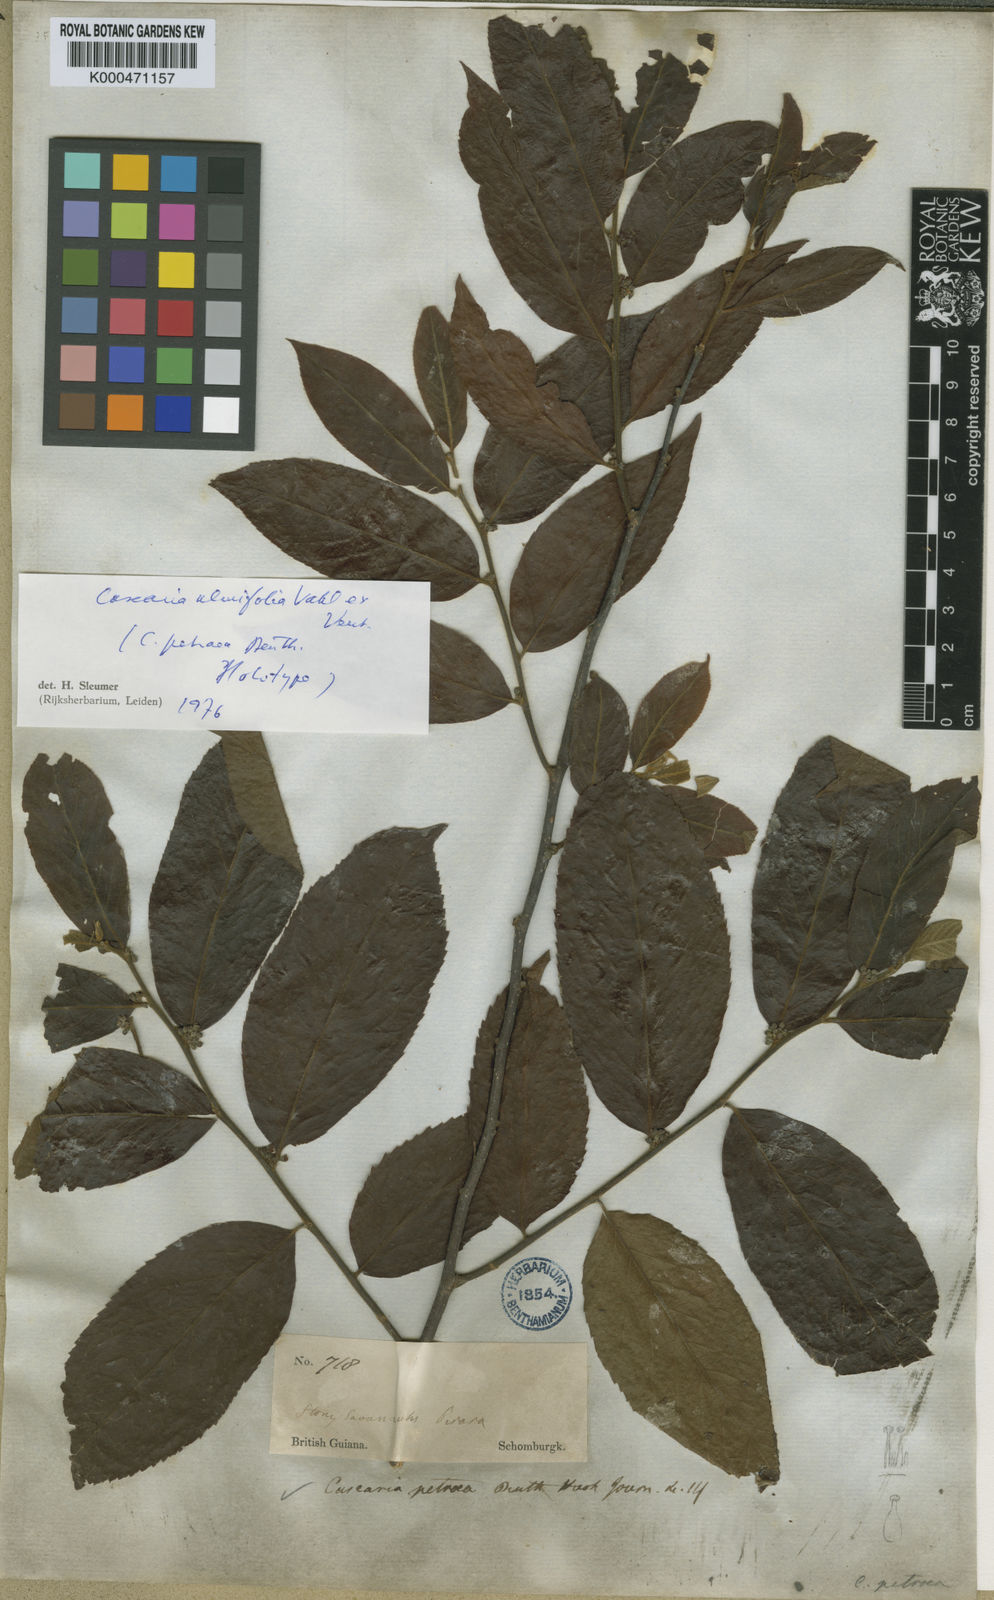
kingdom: Plantae
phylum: Tracheophyta
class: Magnoliopsida
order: Malpighiales
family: Salicaceae
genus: Casearia
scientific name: Casearia ulmifolia
